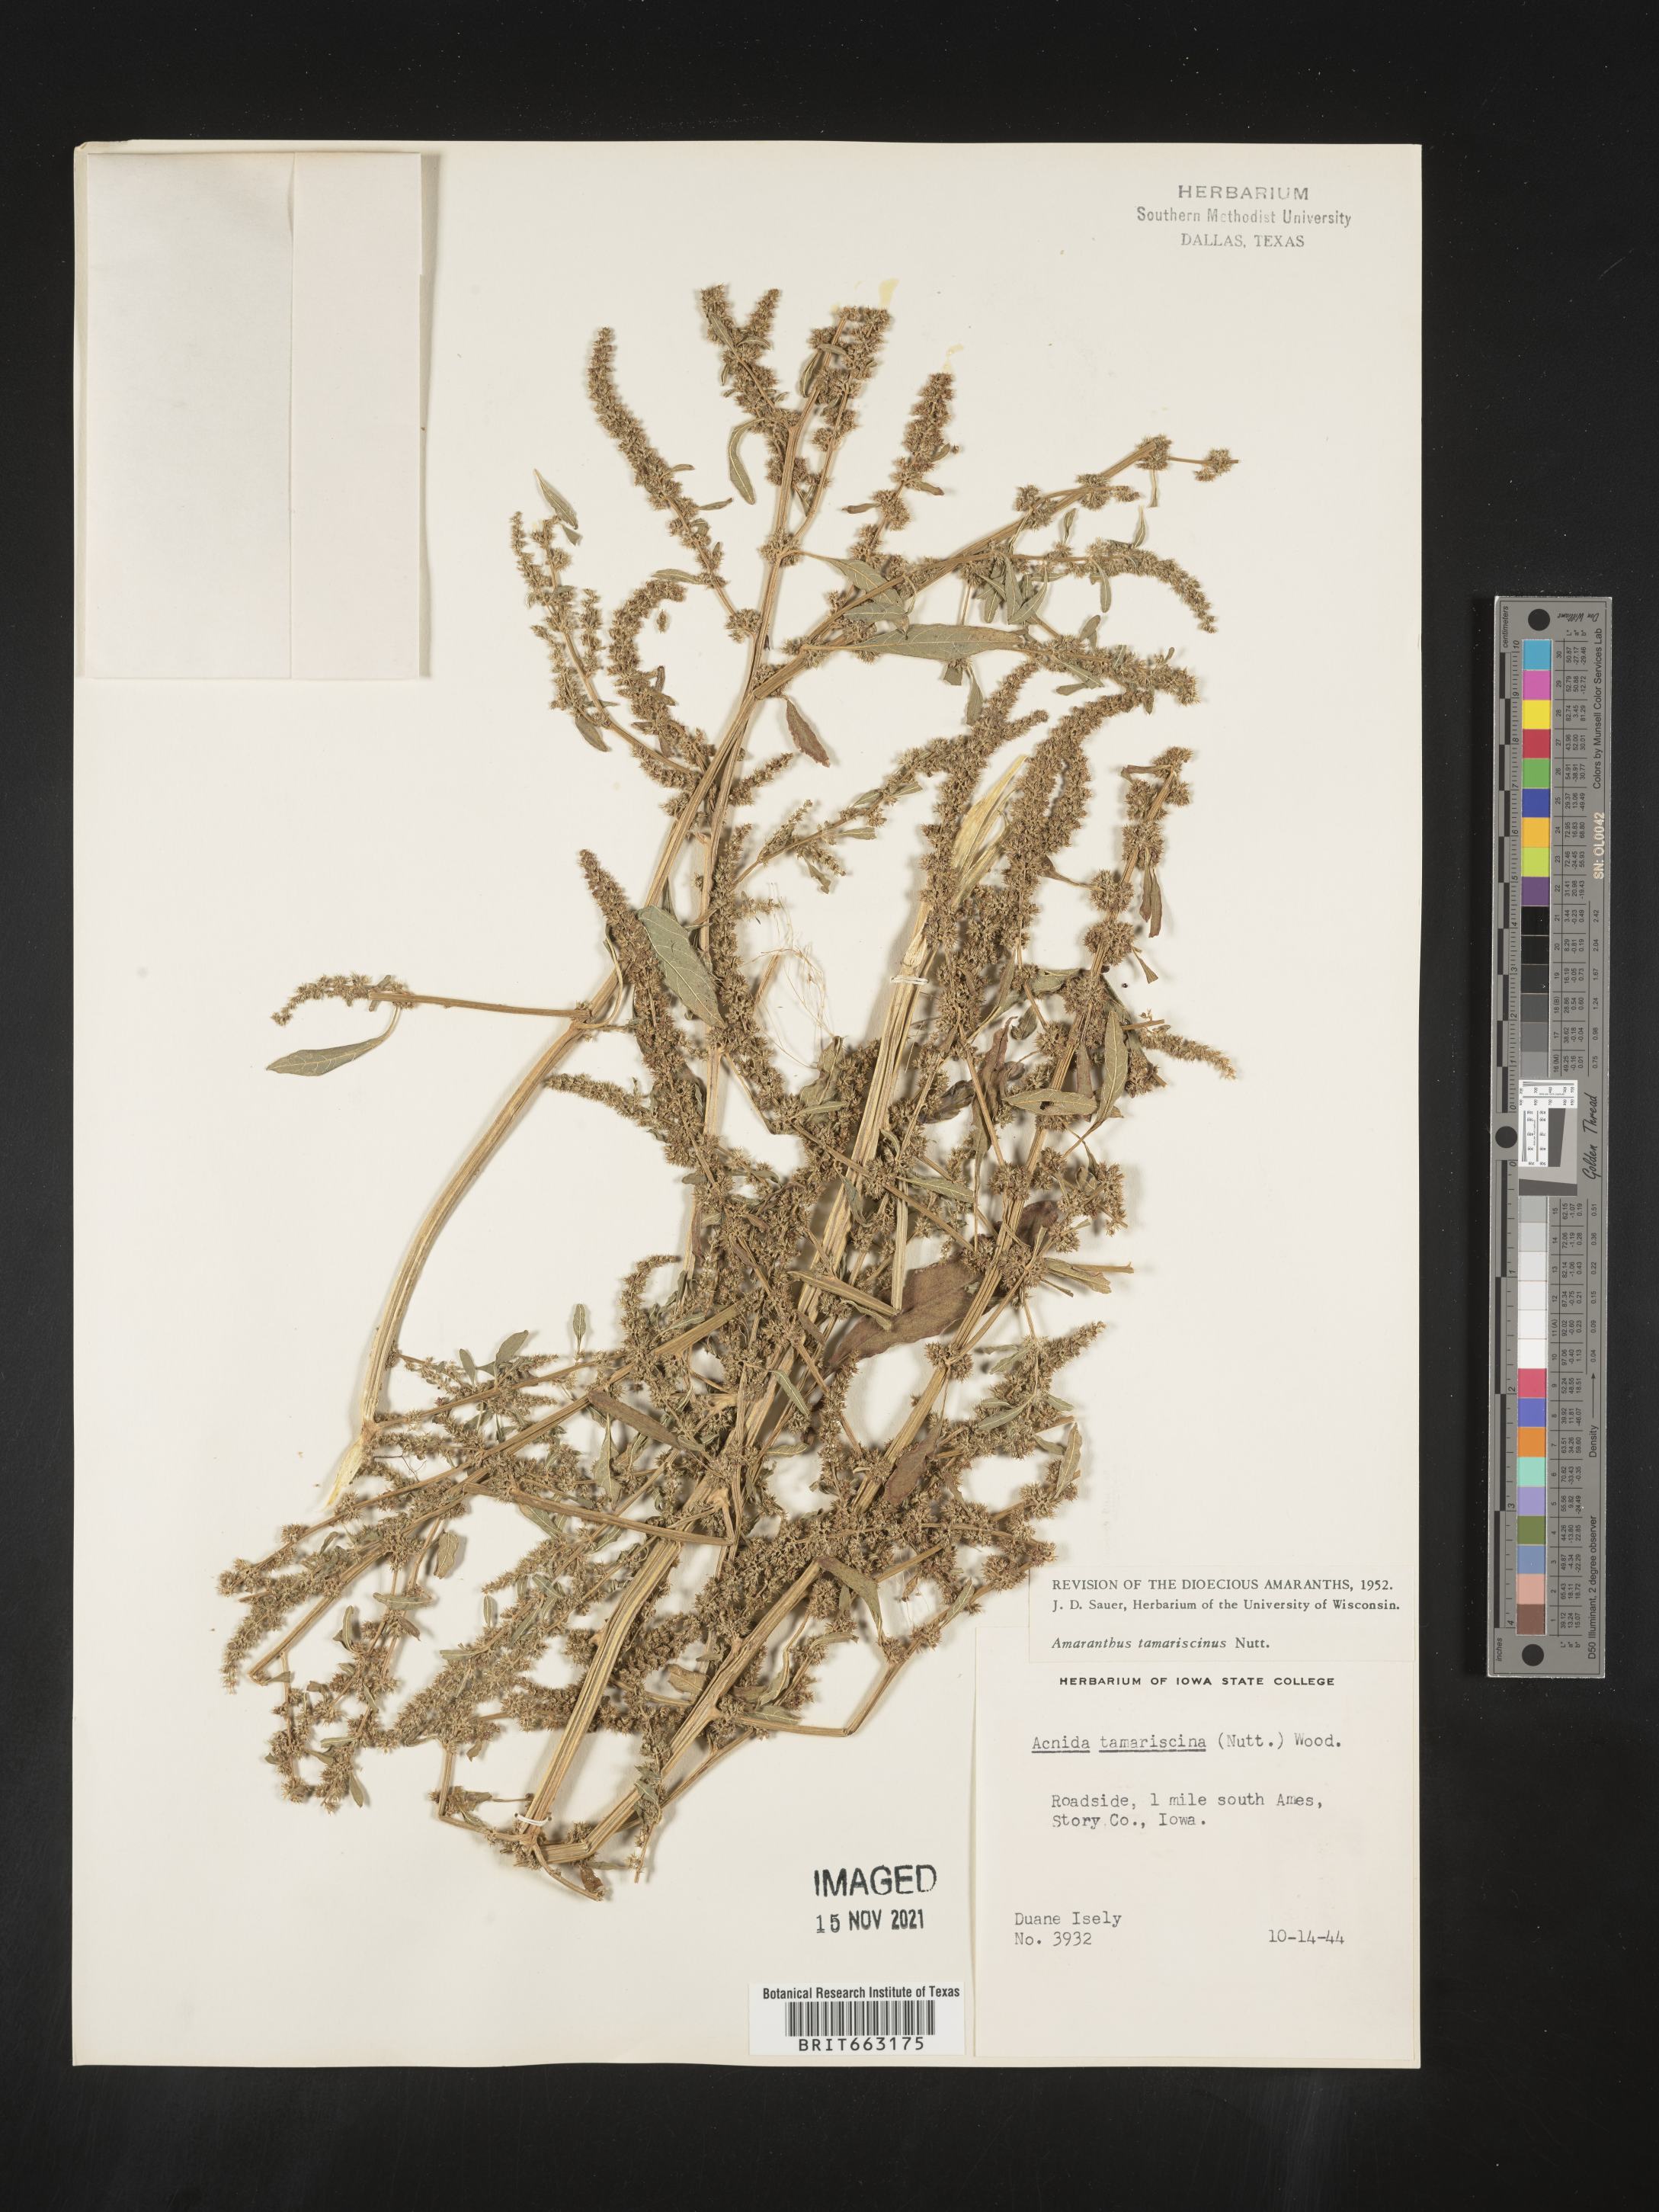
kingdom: Plantae
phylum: Tracheophyta
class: Magnoliopsida
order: Caryophyllales
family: Amaranthaceae
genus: Amaranthus
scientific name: Amaranthus tamariscinus
